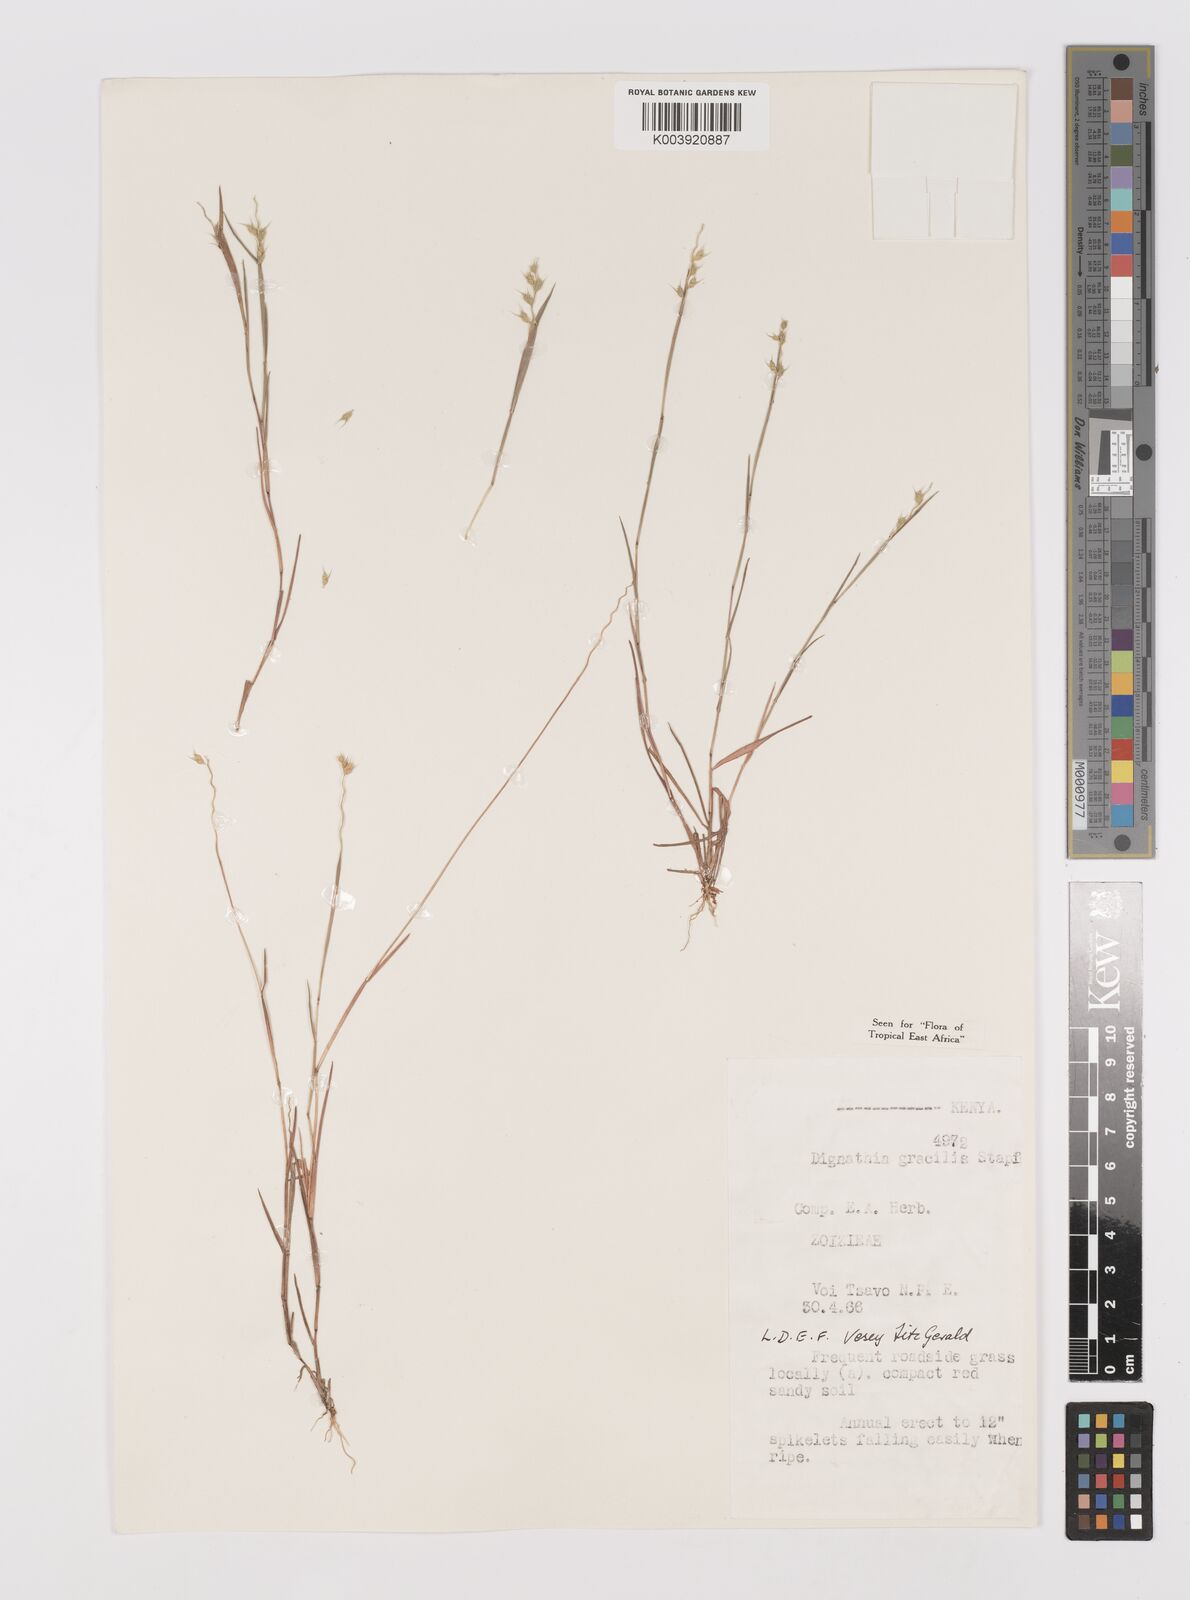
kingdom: Plantae
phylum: Tracheophyta
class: Liliopsida
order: Poales
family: Poaceae
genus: Dignathia
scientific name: Dignathia gracilis
